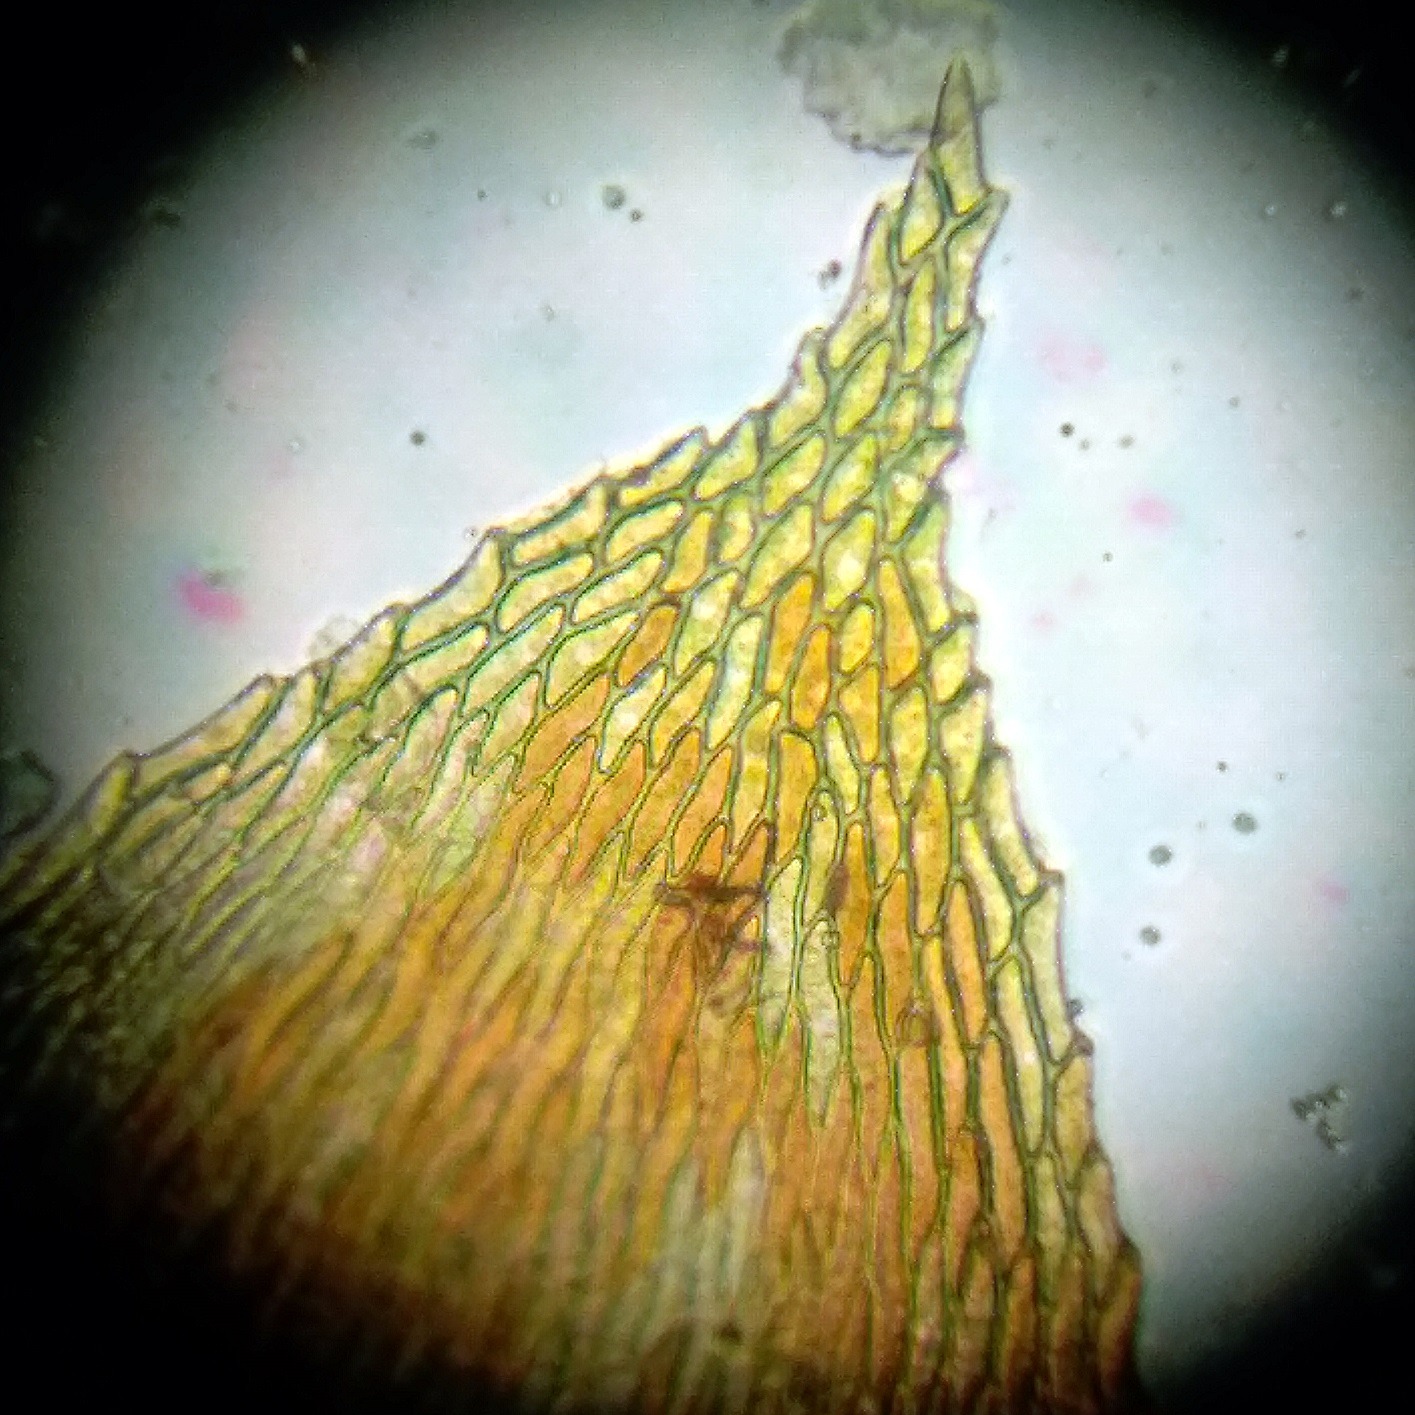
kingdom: Plantae
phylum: Bryophyta
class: Bryopsida
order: Hypnales
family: Taxiphyllaceae
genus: Taxiphyllum
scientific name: Taxiphyllum wissgrillii
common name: Tandet trådmos
